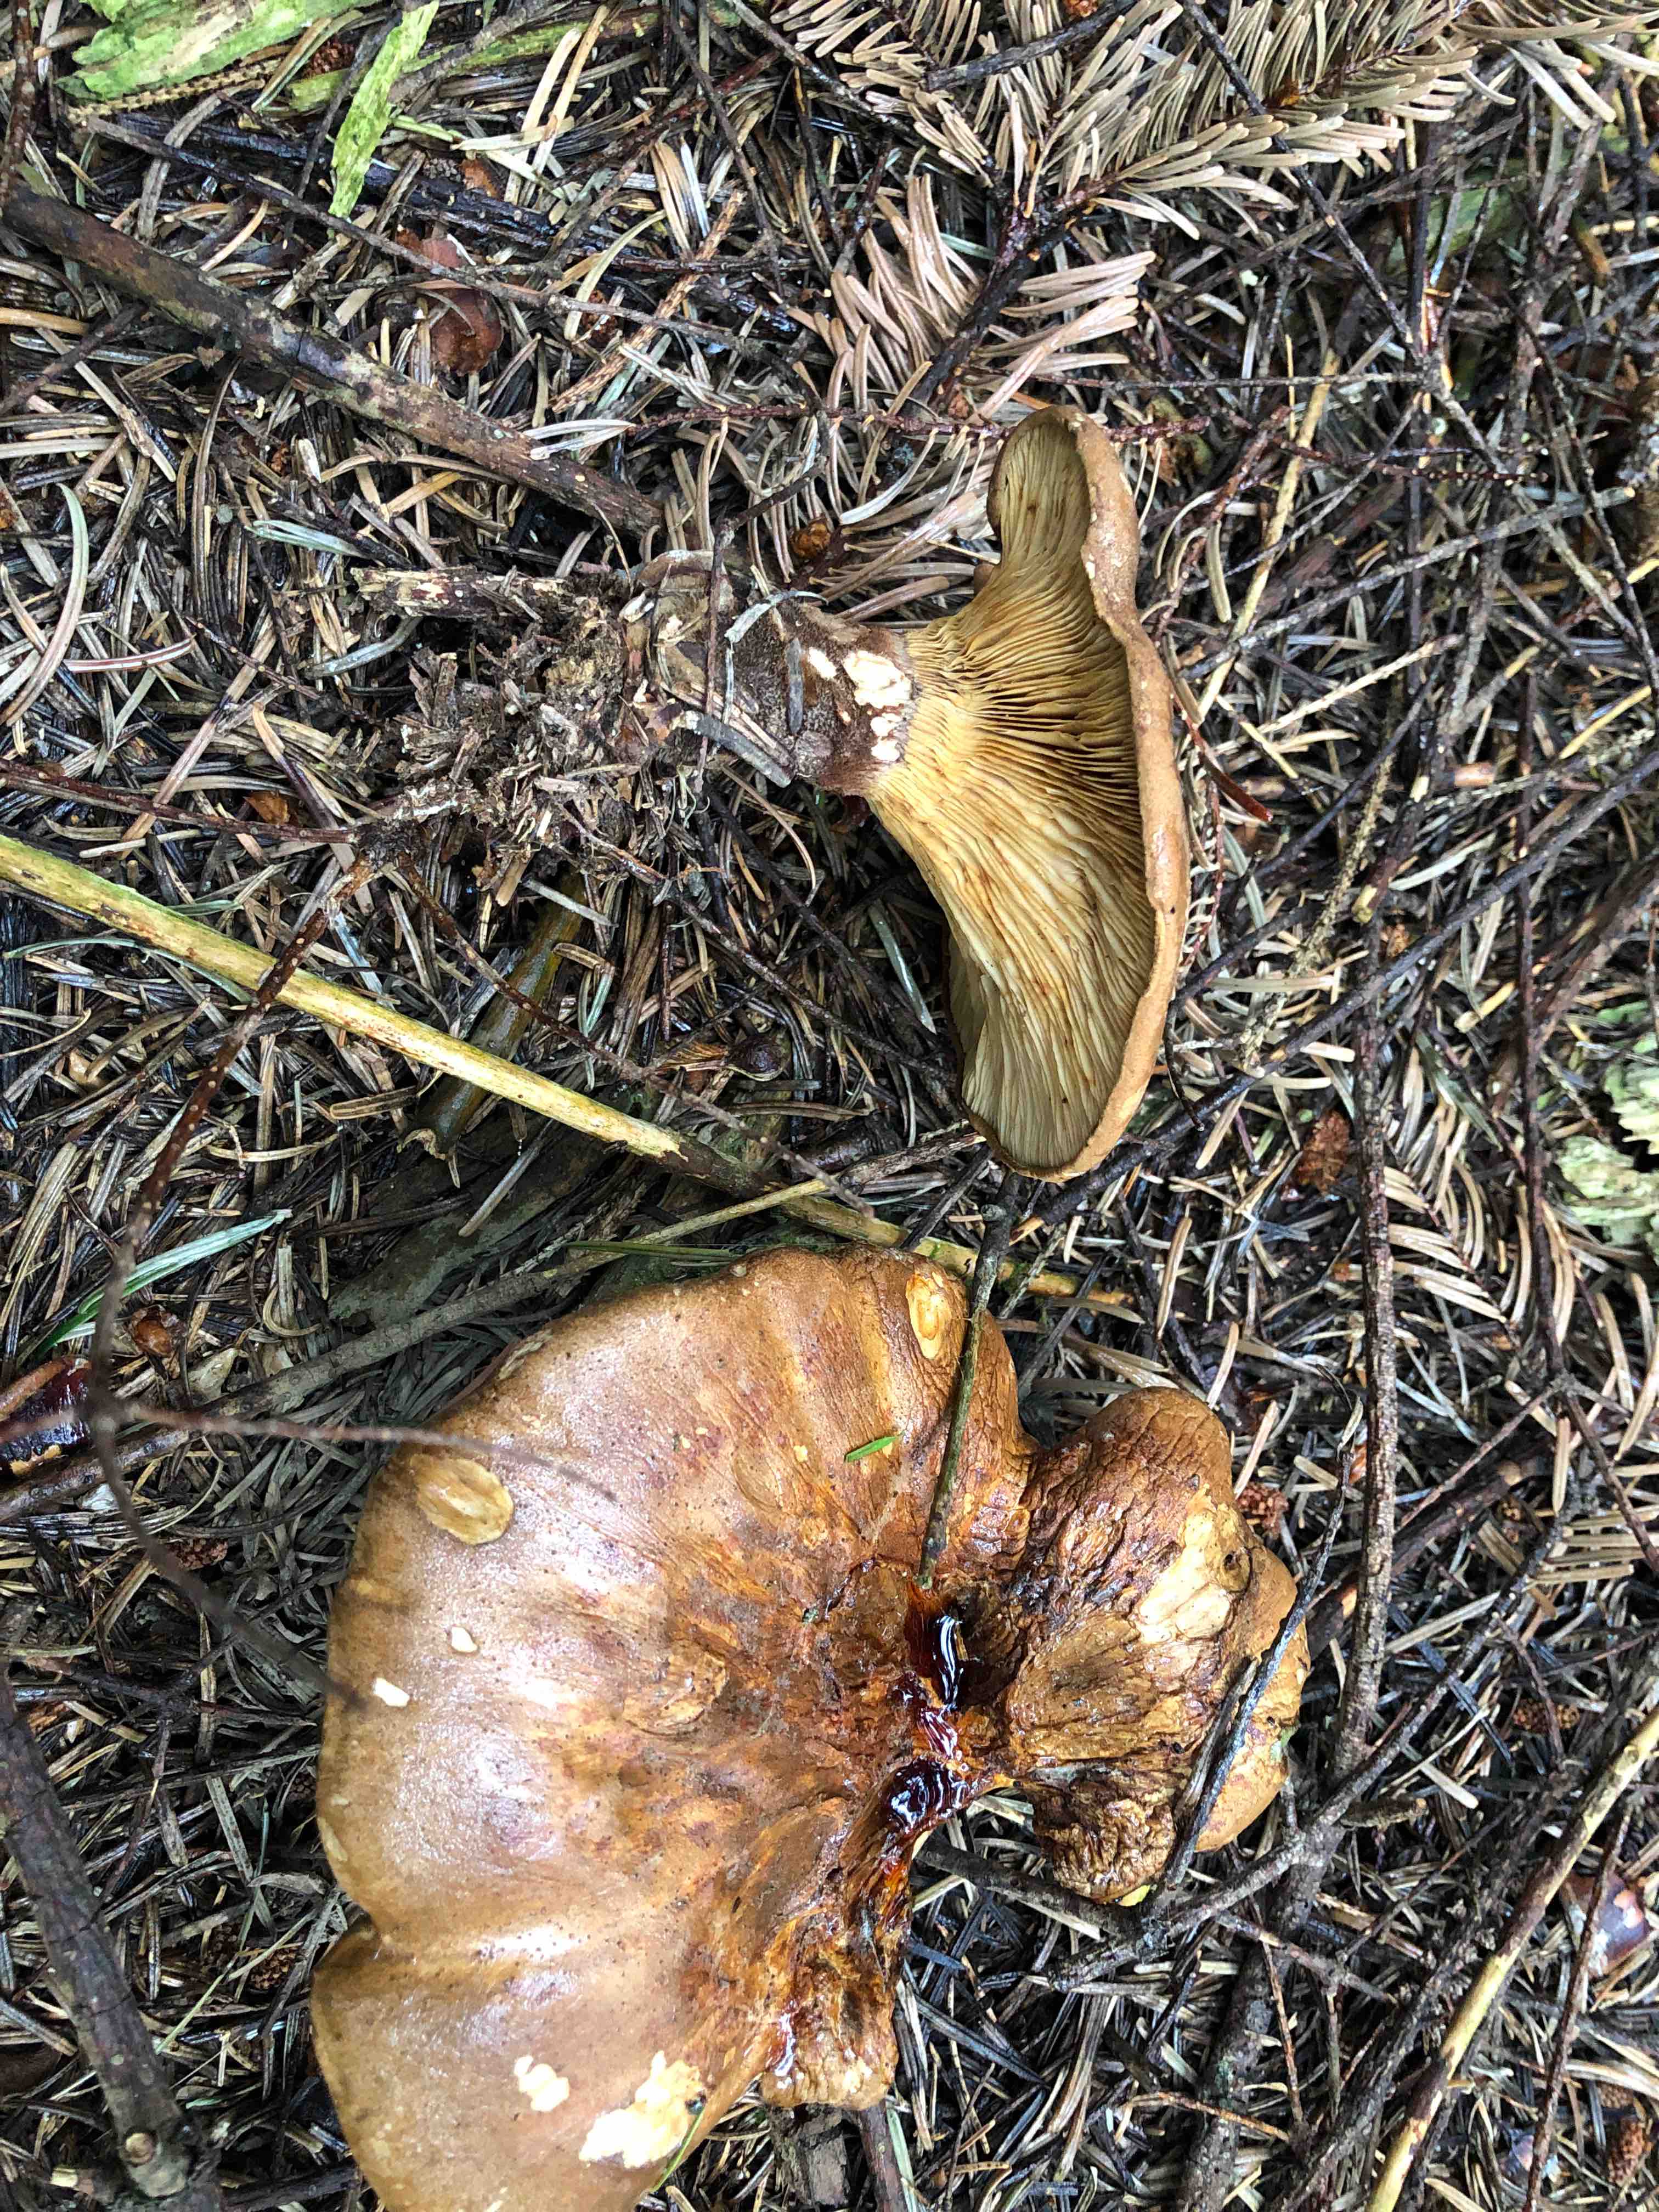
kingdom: Fungi
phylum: Basidiomycota
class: Agaricomycetes
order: Boletales
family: Tapinellaceae
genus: Tapinella
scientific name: Tapinella atrotomentosa
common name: sortfiltet viftesvamp
